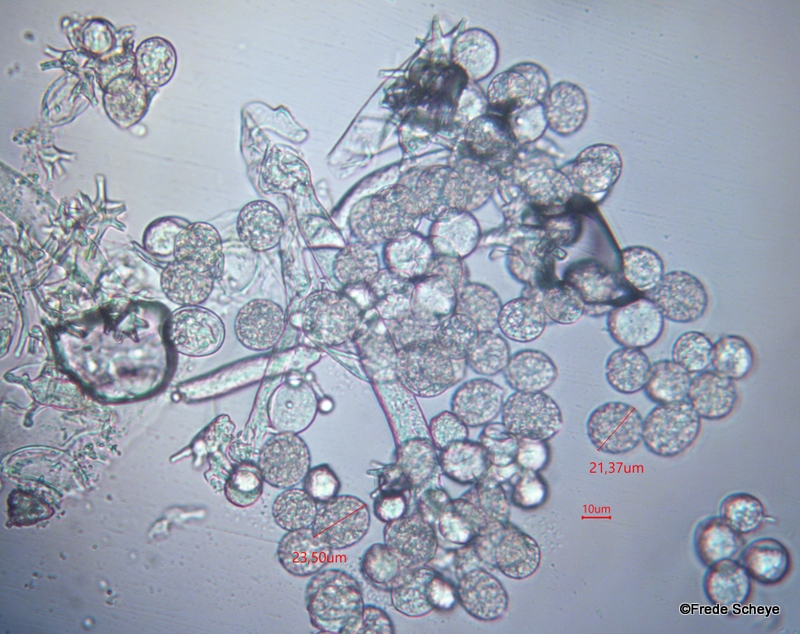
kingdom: Chromista
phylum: Oomycota
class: Peronosporea
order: Peronosporales
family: Peronosporaceae
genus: Plasmoverna
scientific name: Plasmoverna anemones-ranunculoidis
